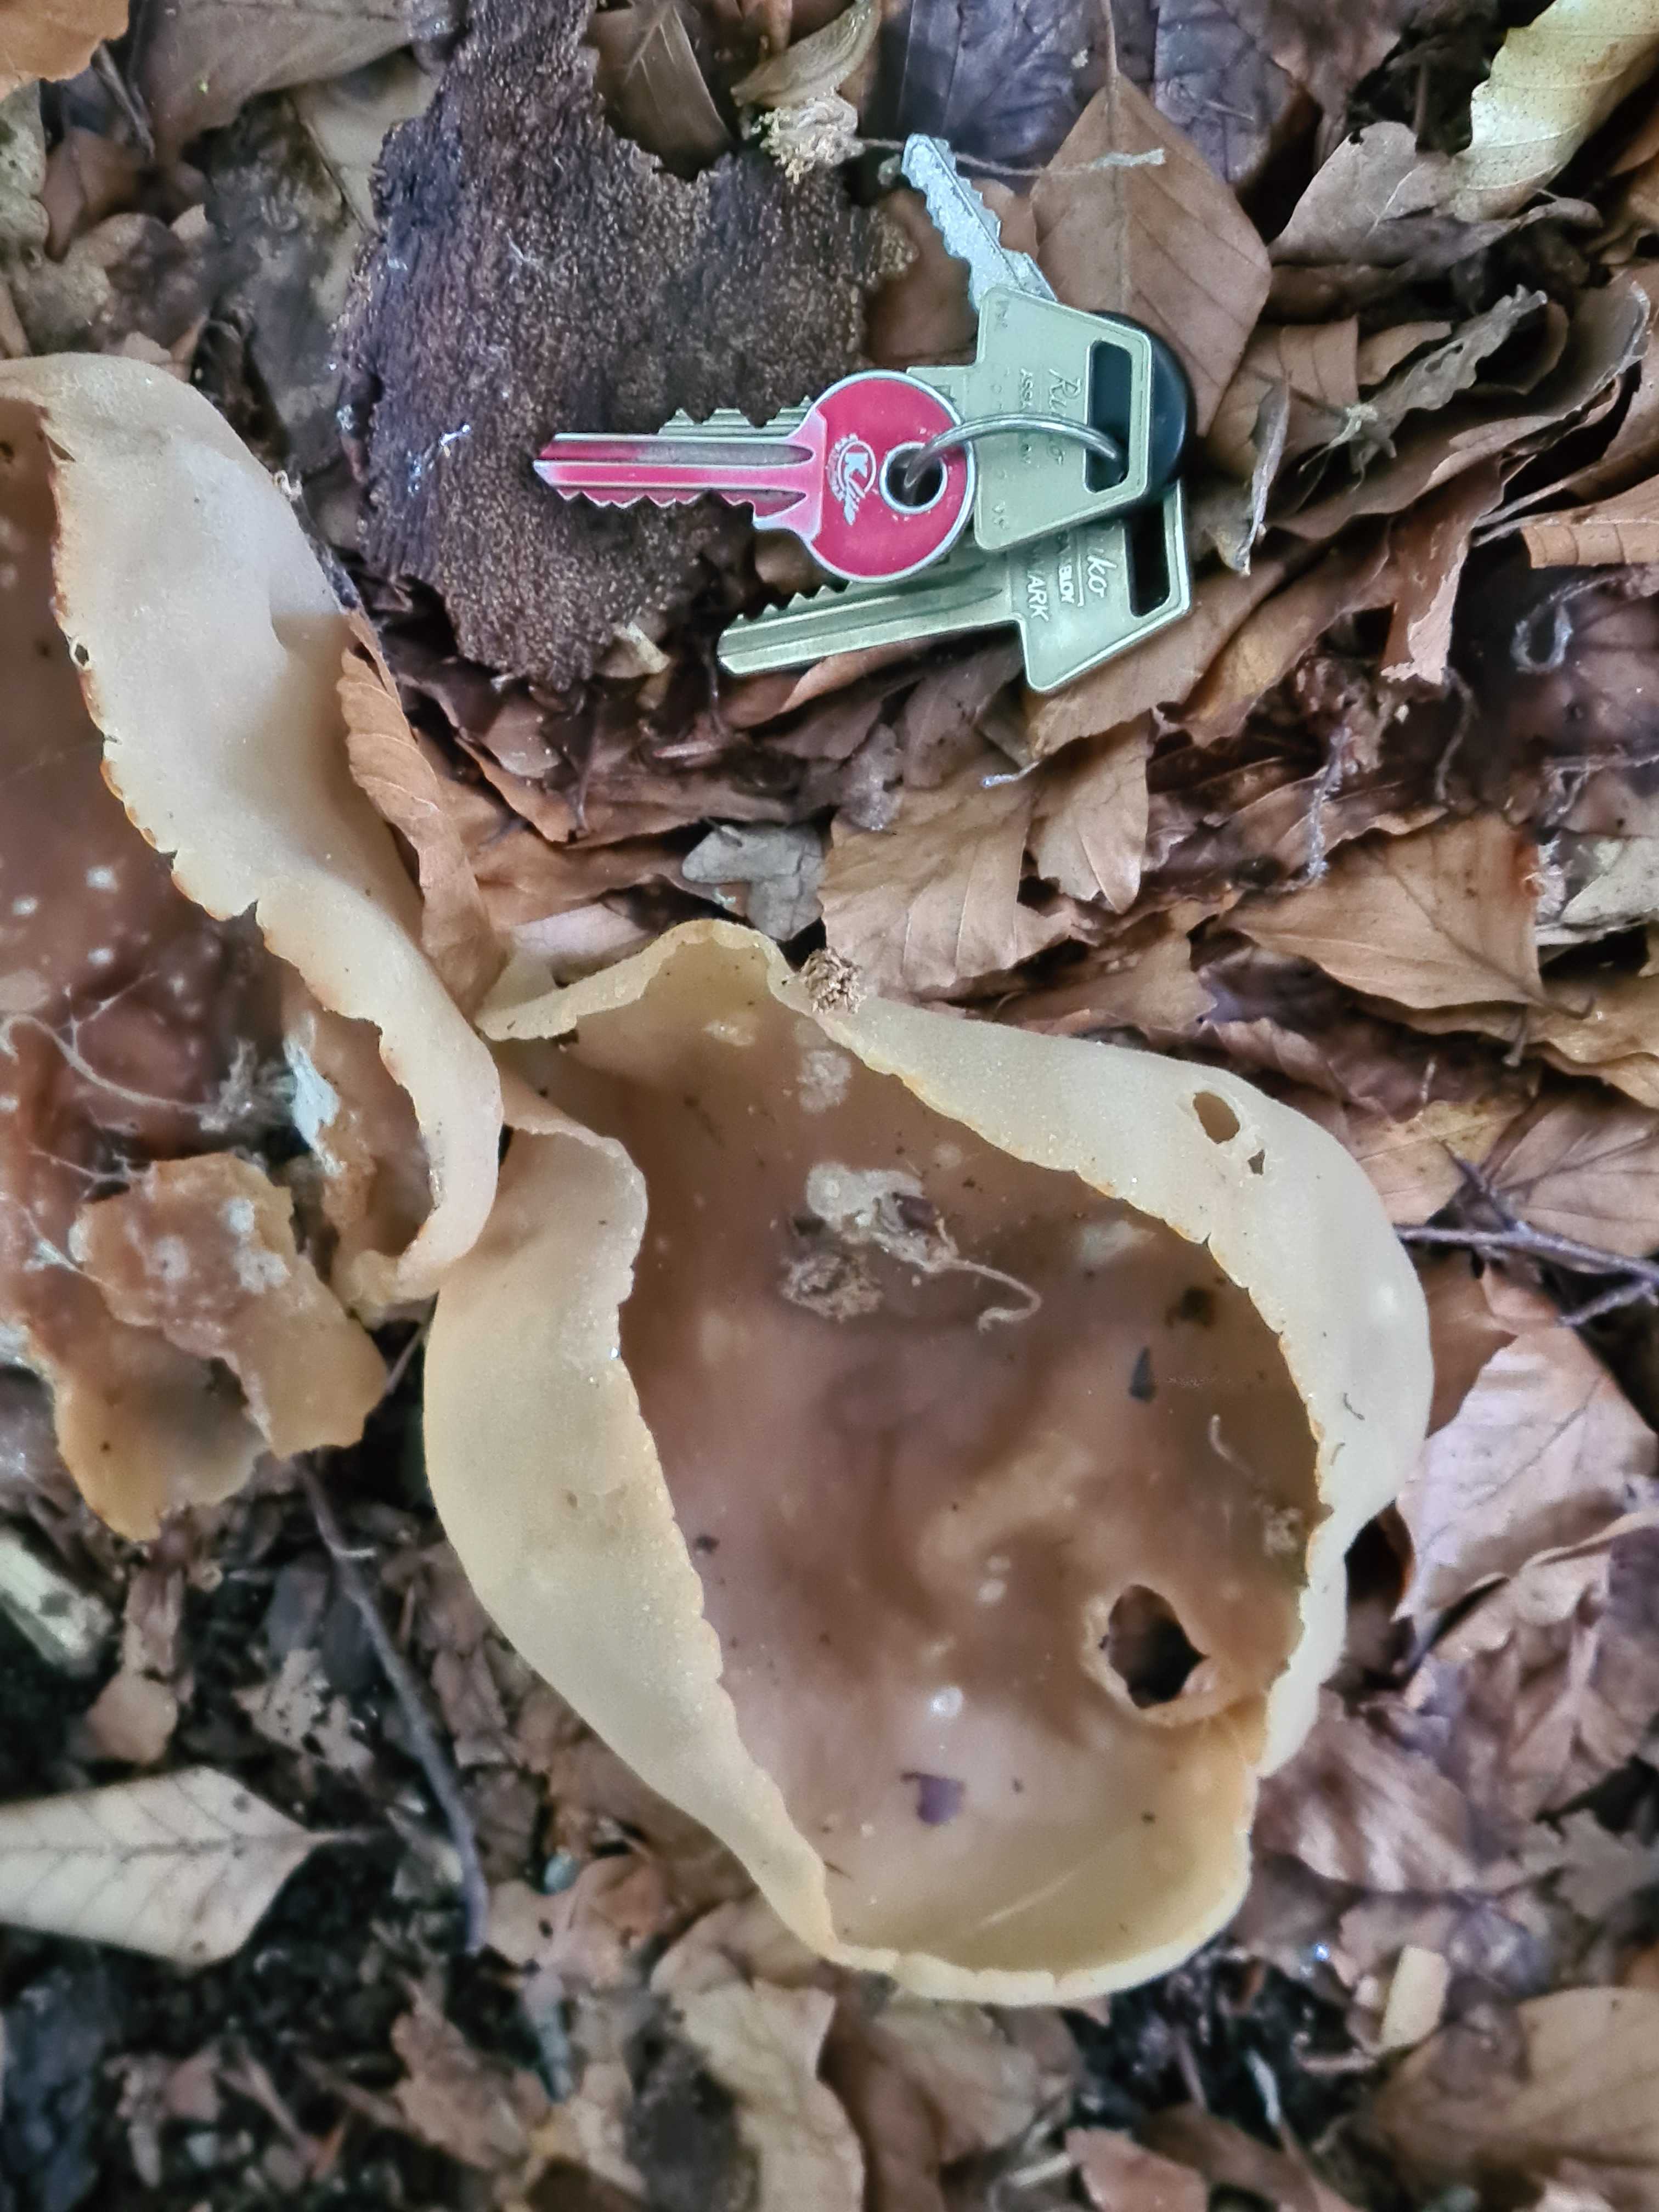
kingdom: Fungi
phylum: Ascomycota
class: Pezizomycetes
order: Pezizales
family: Pezizaceae
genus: Peziza
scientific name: Peziza
